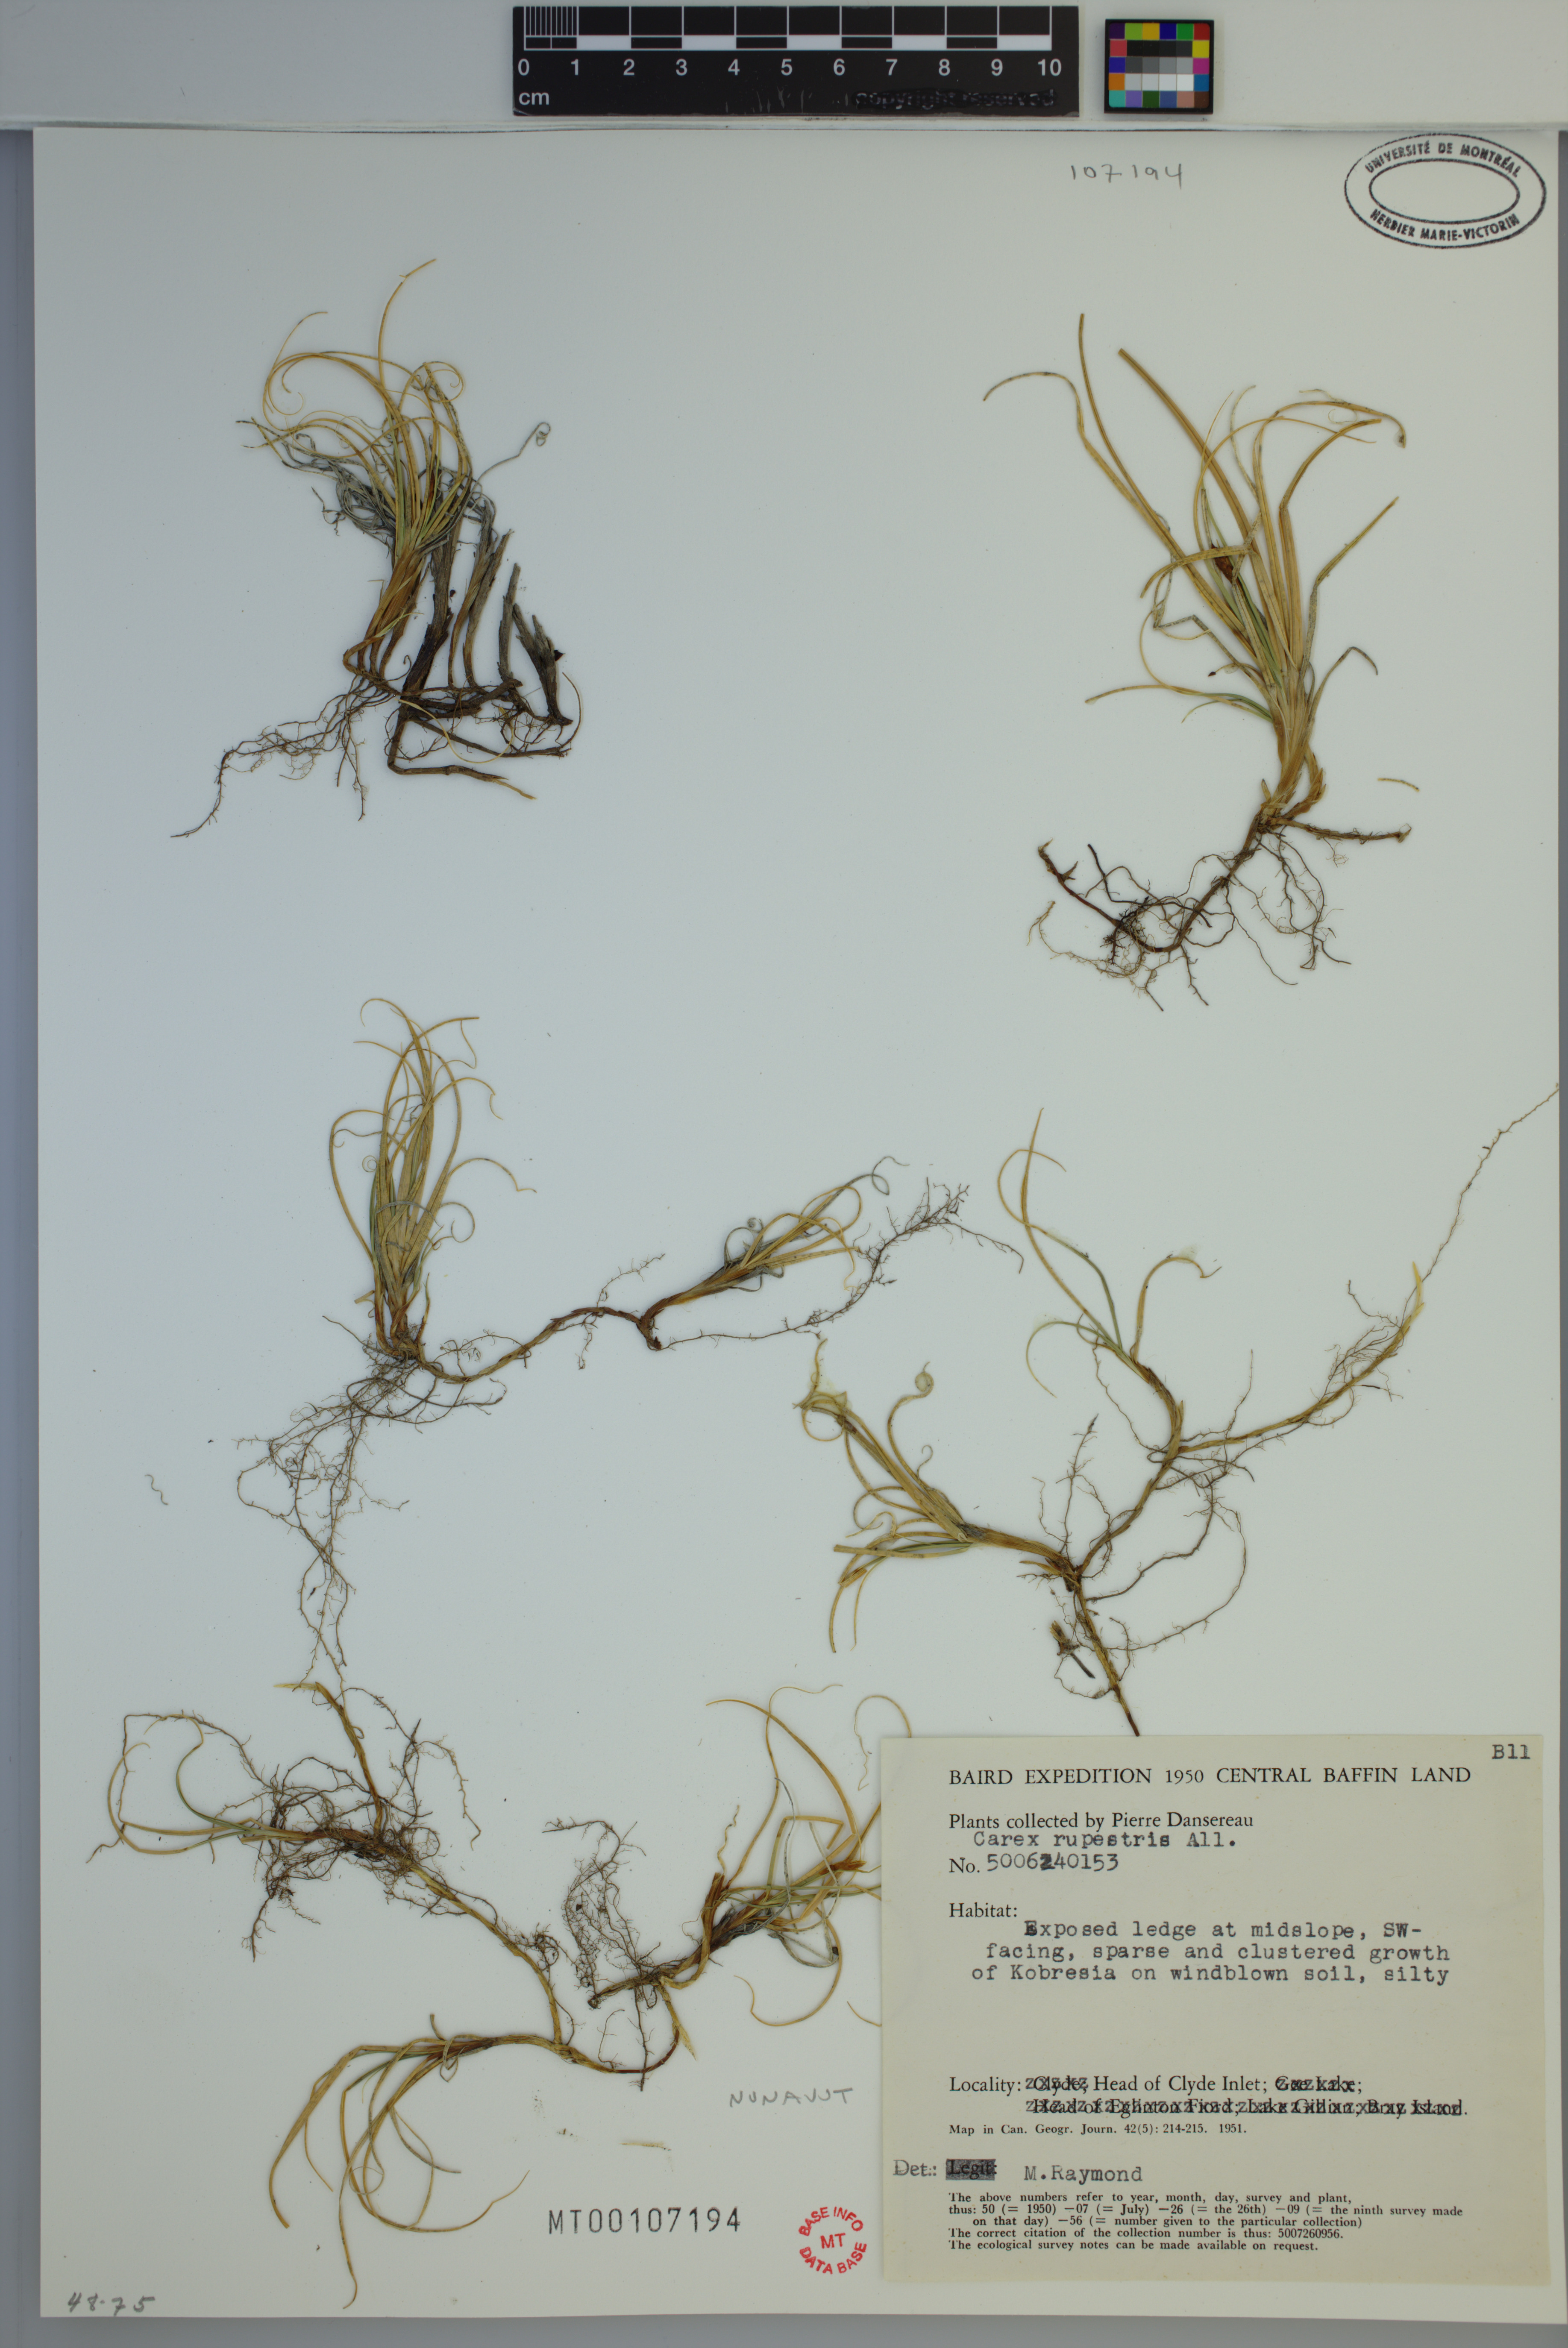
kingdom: Plantae
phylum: Tracheophyta
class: Liliopsida
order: Poales
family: Cyperaceae
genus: Carex
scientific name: Carex rupestris
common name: Rock sedge
